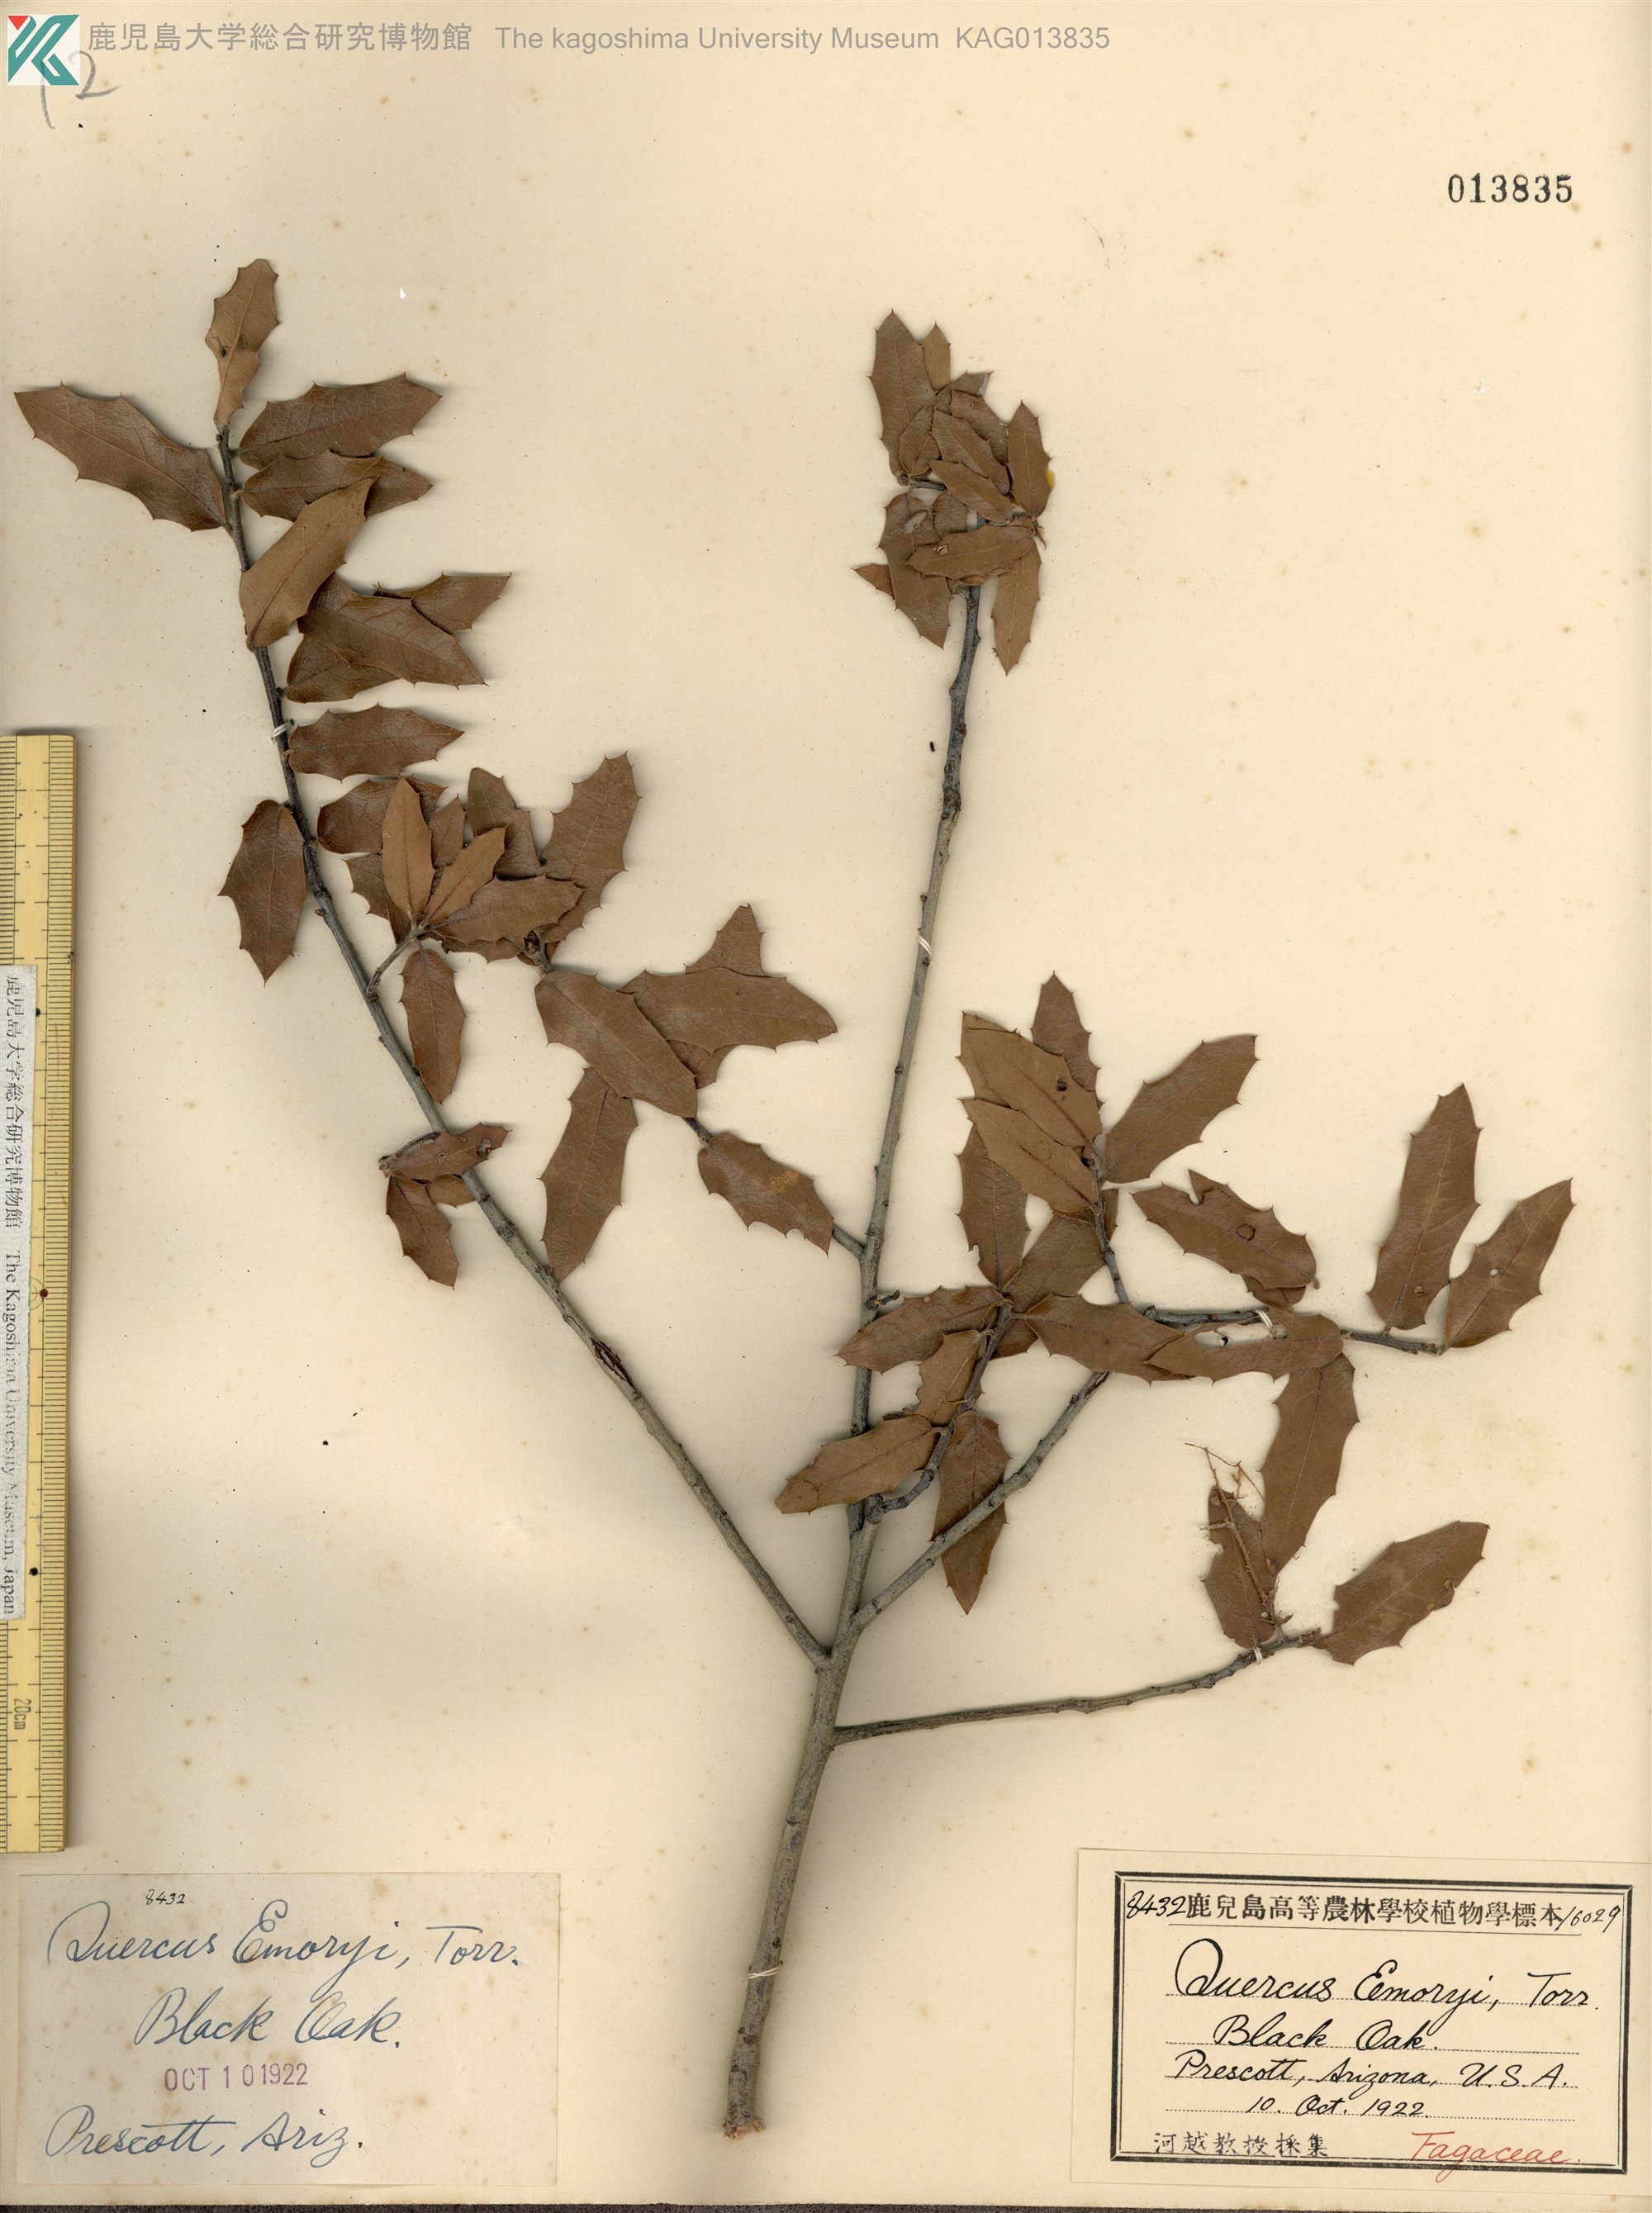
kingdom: Plantae
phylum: Tracheophyta
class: Magnoliopsida
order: Fagales
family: Fagaceae
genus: Quercus
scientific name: Quercus emoryi
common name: Emory oak
